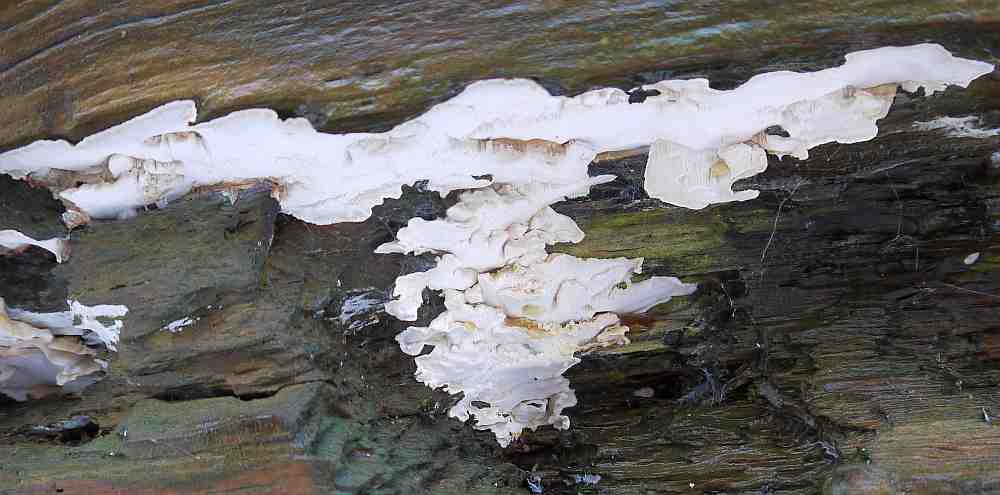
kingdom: Fungi
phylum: Basidiomycota
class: Agaricomycetes
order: Polyporales
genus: Fuscopostia
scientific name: Fuscopostia leucomallella
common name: gulbrun kødporesvamp
